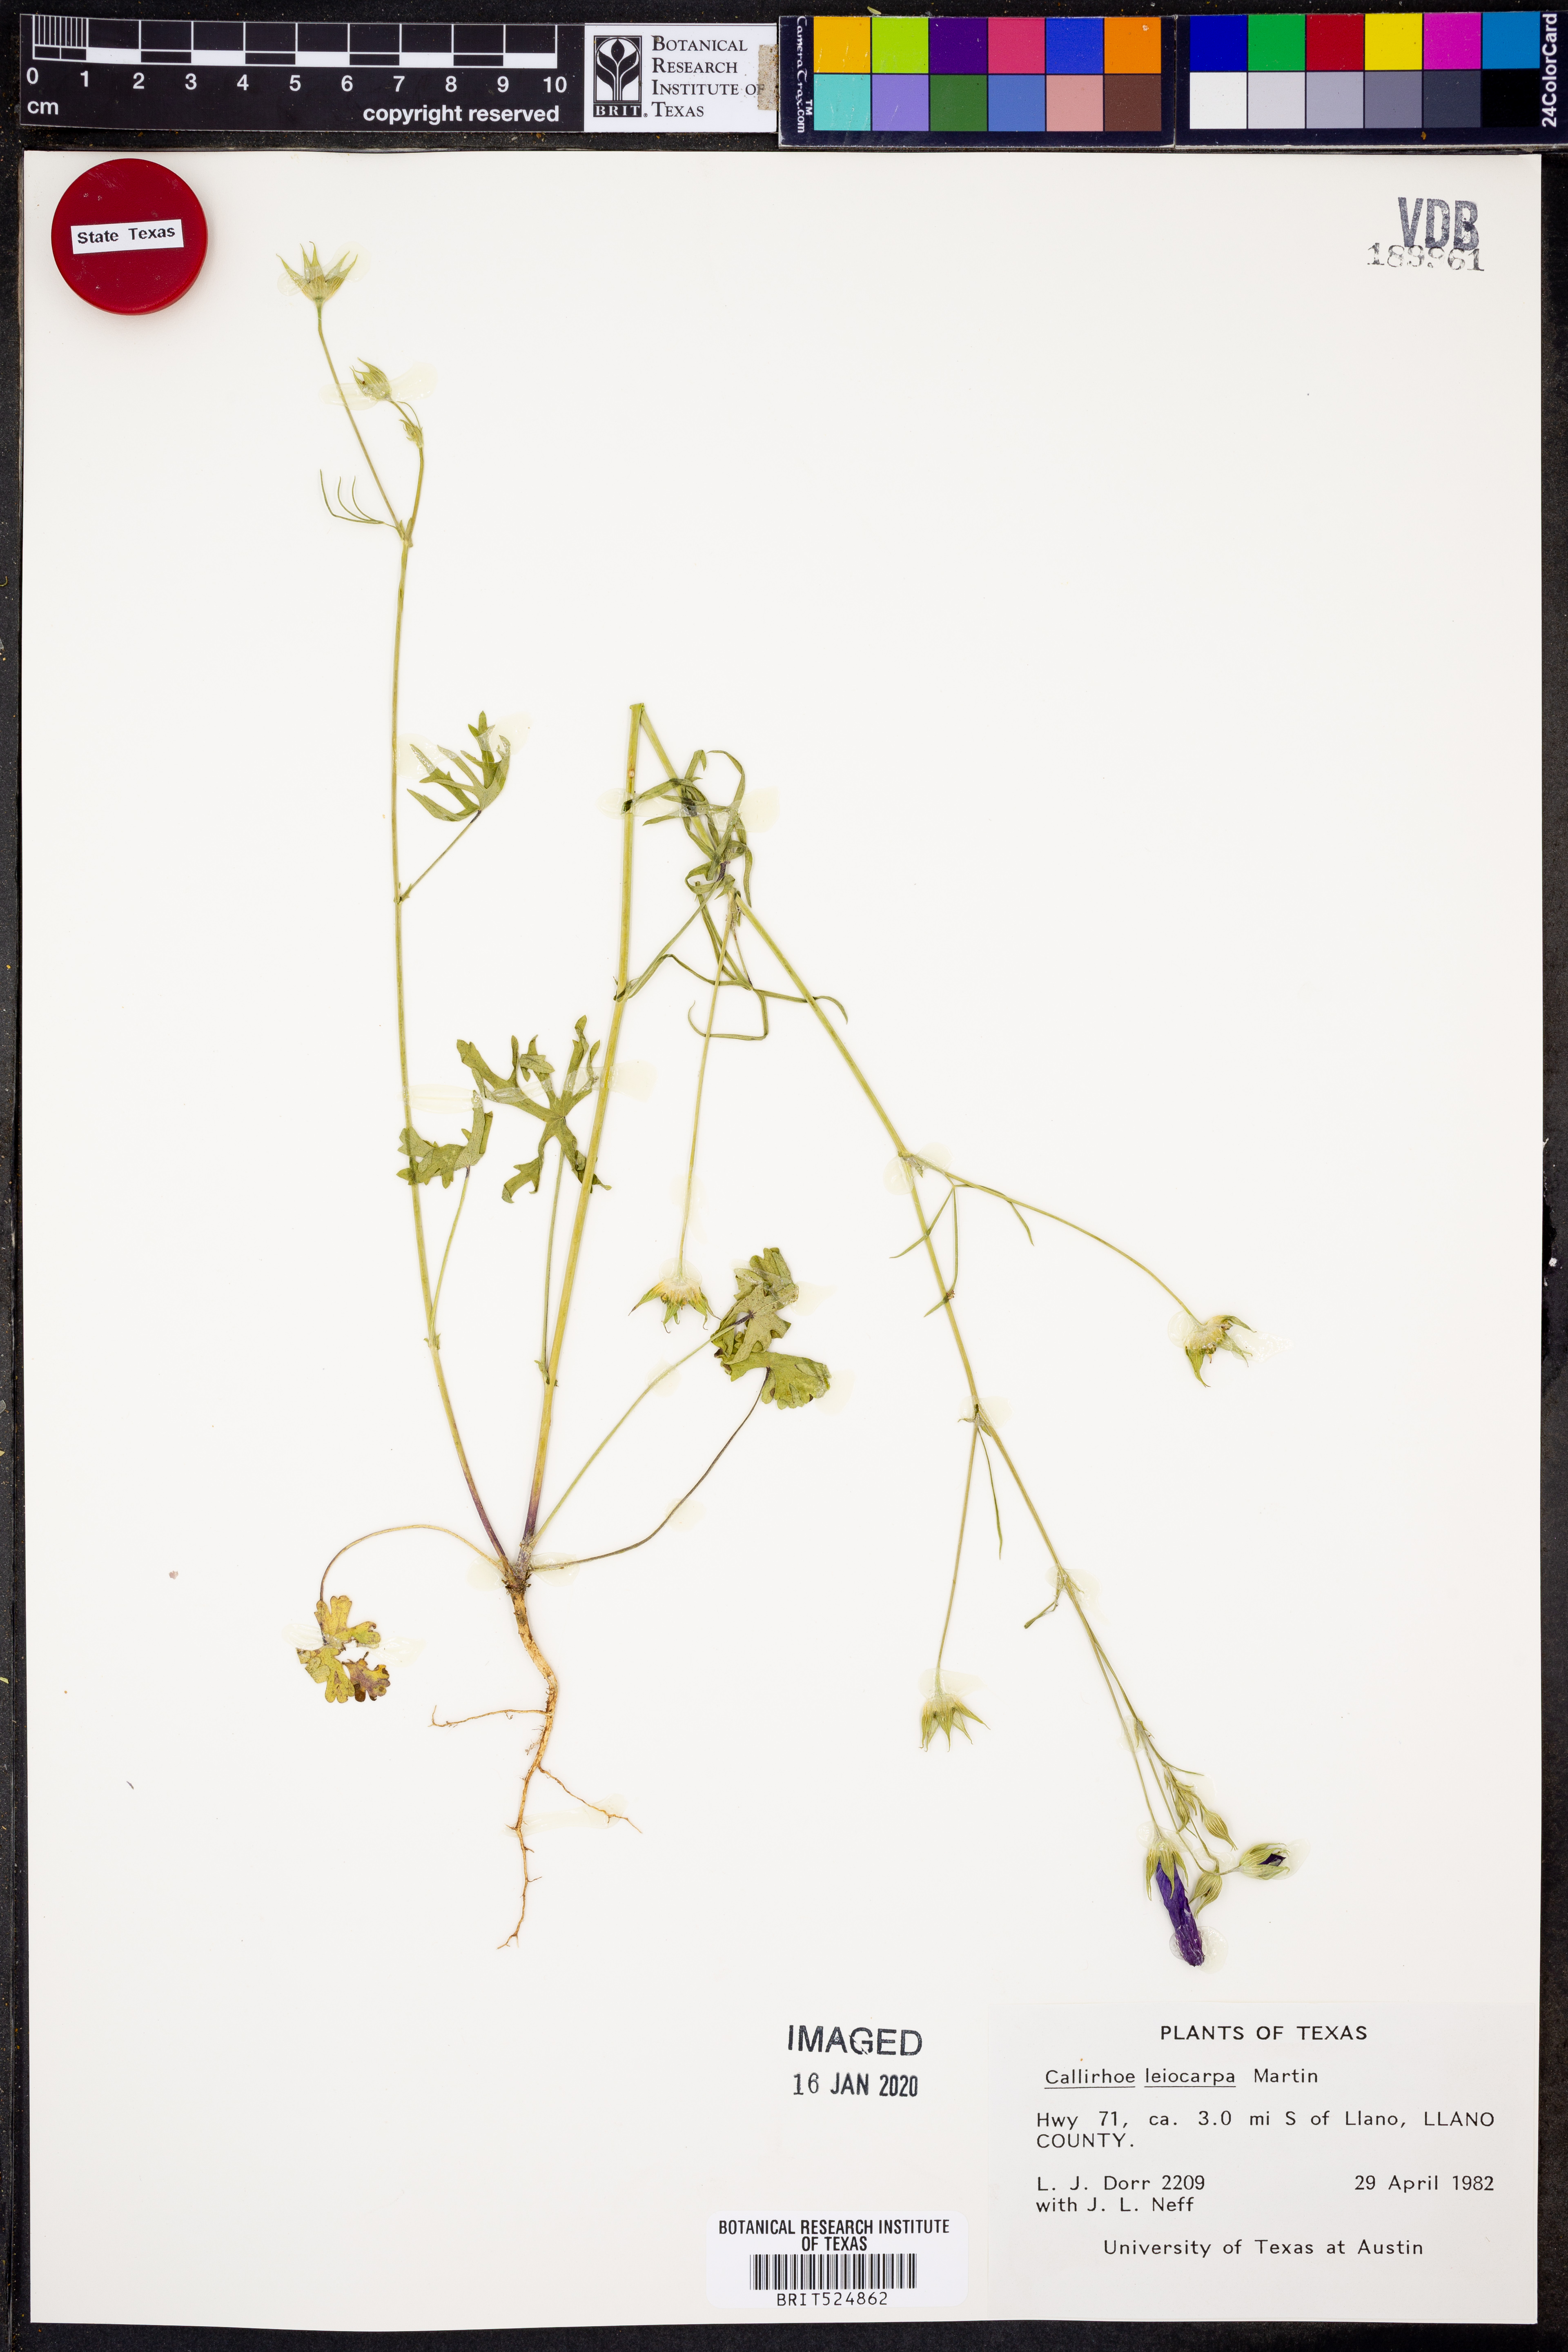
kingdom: Plantae
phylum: Tracheophyta
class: Magnoliopsida
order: Malvales
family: Malvaceae
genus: Callirhoe
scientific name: Callirhoe leiocarpa
